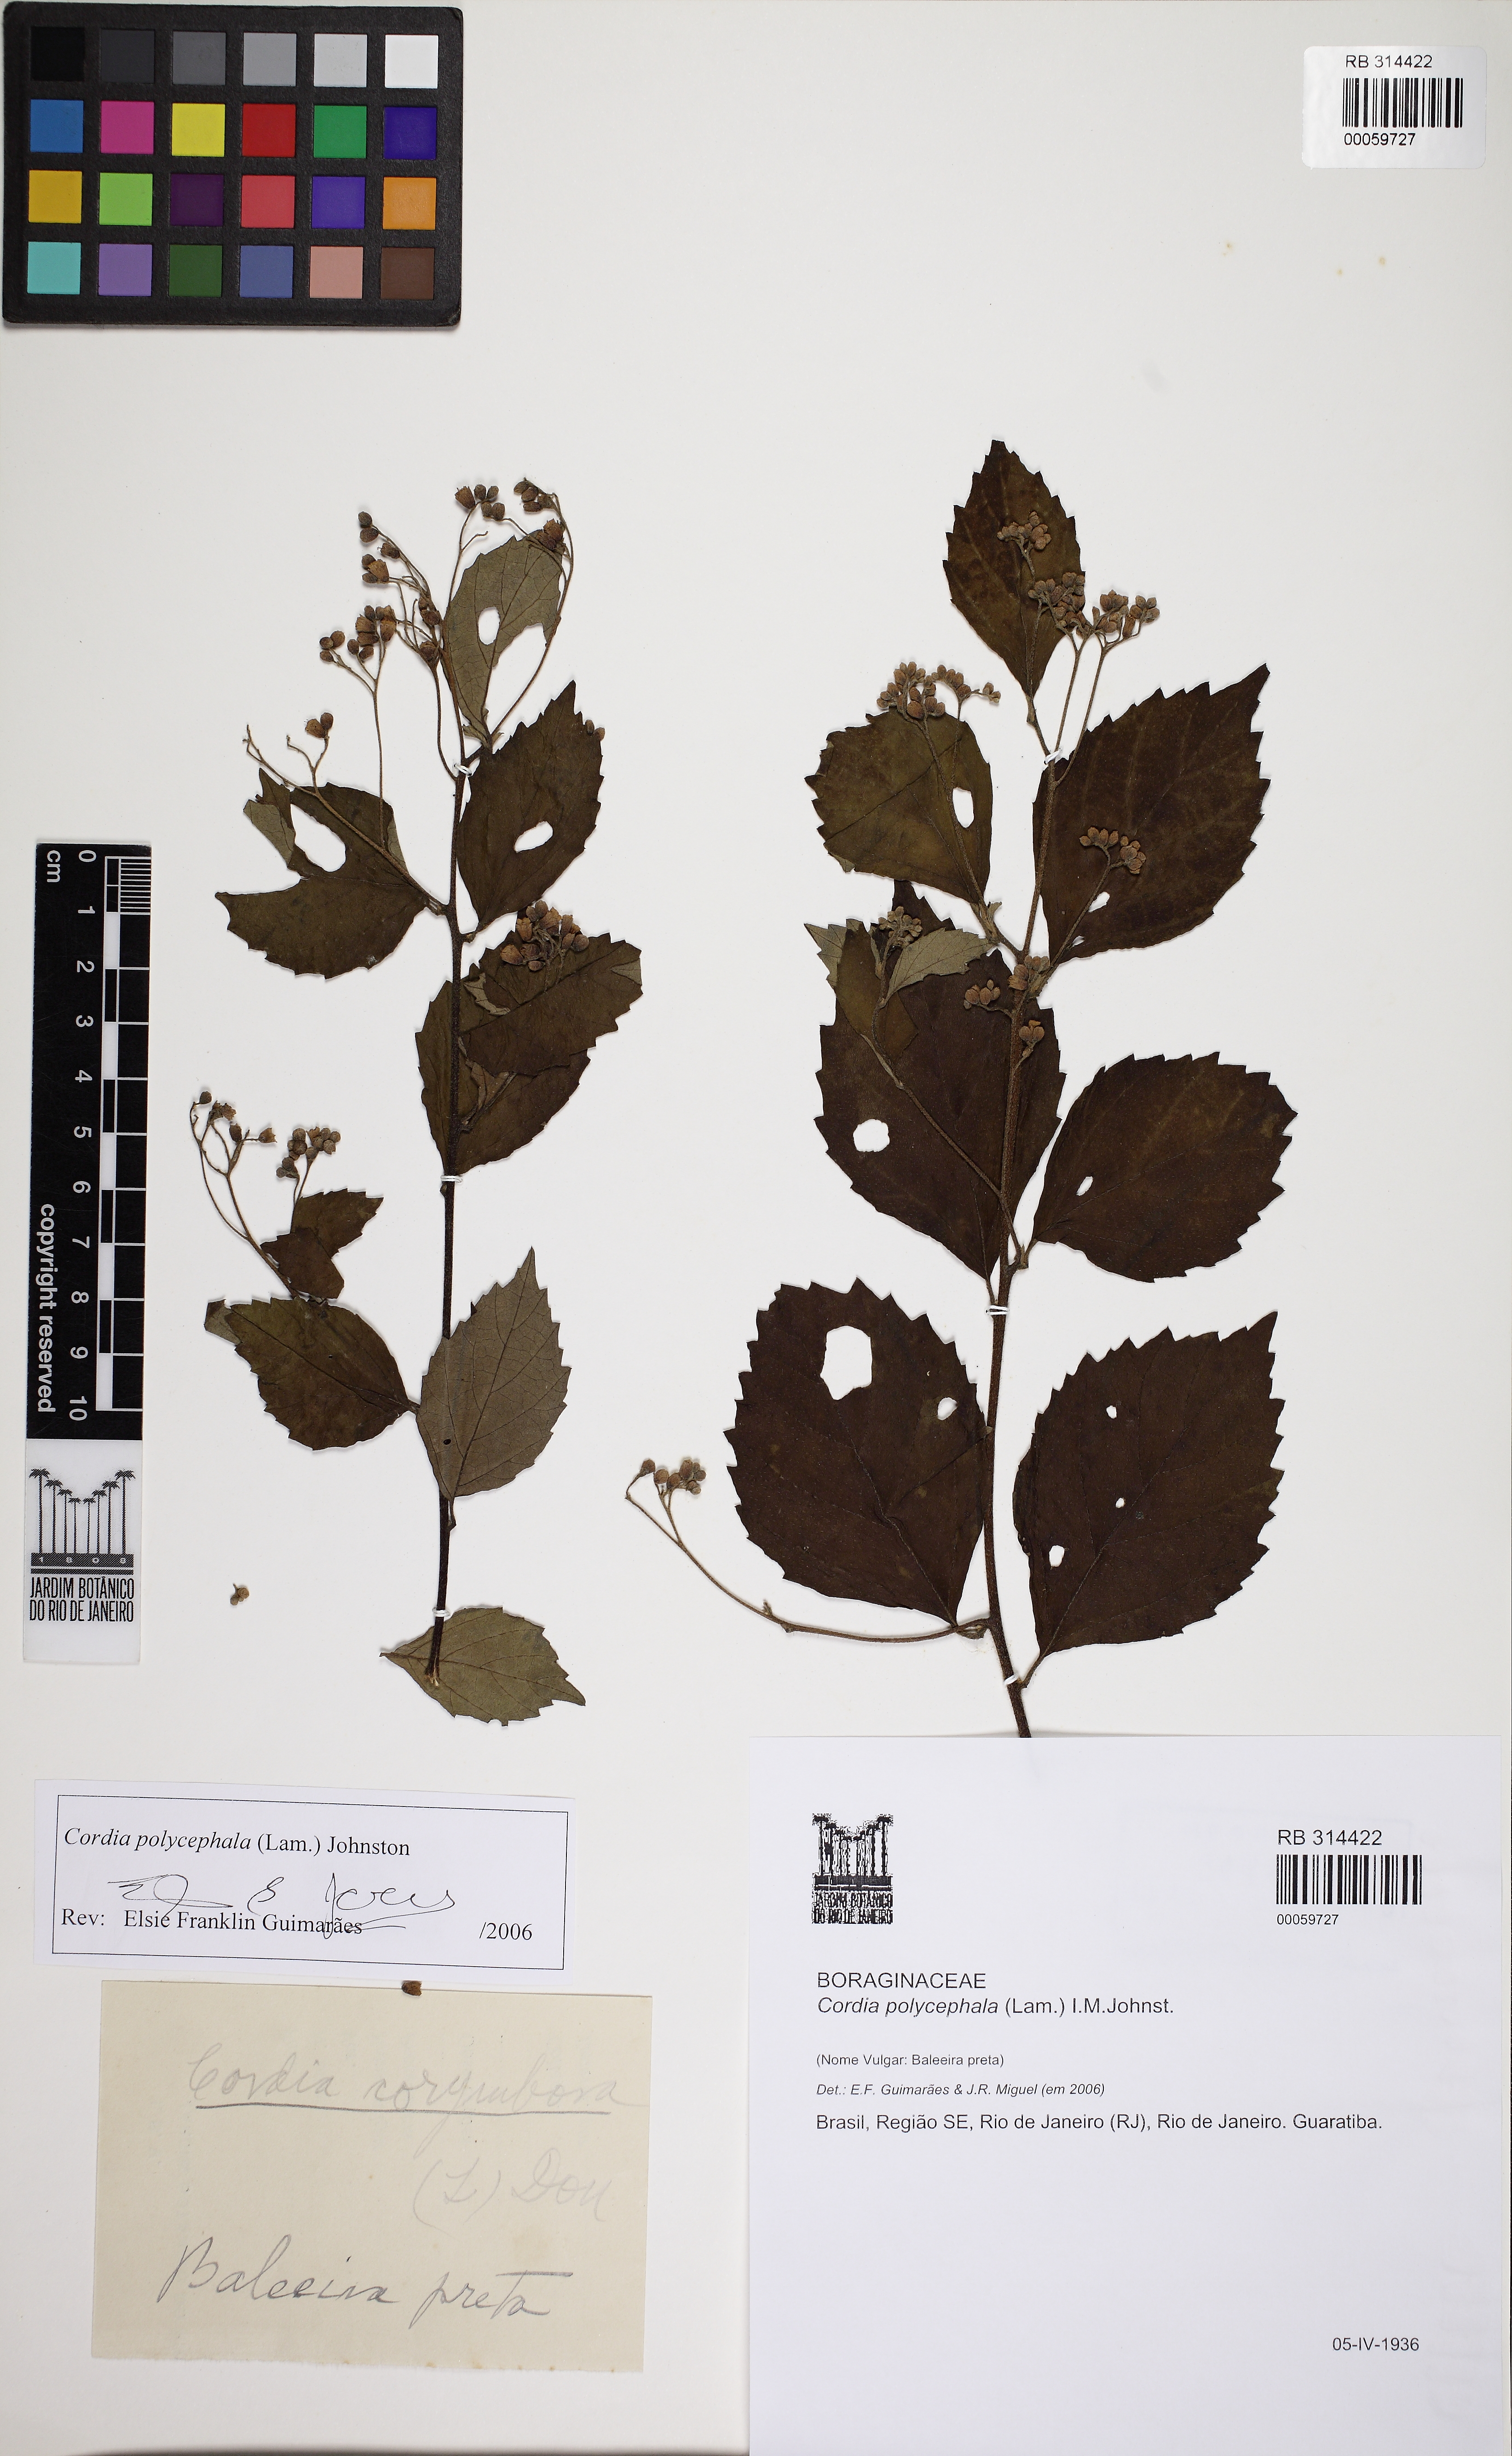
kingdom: Plantae
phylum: Tracheophyta
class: Magnoliopsida
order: Boraginales
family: Cordiaceae
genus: Varronia
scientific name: Varronia polycephala
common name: Black-sage
